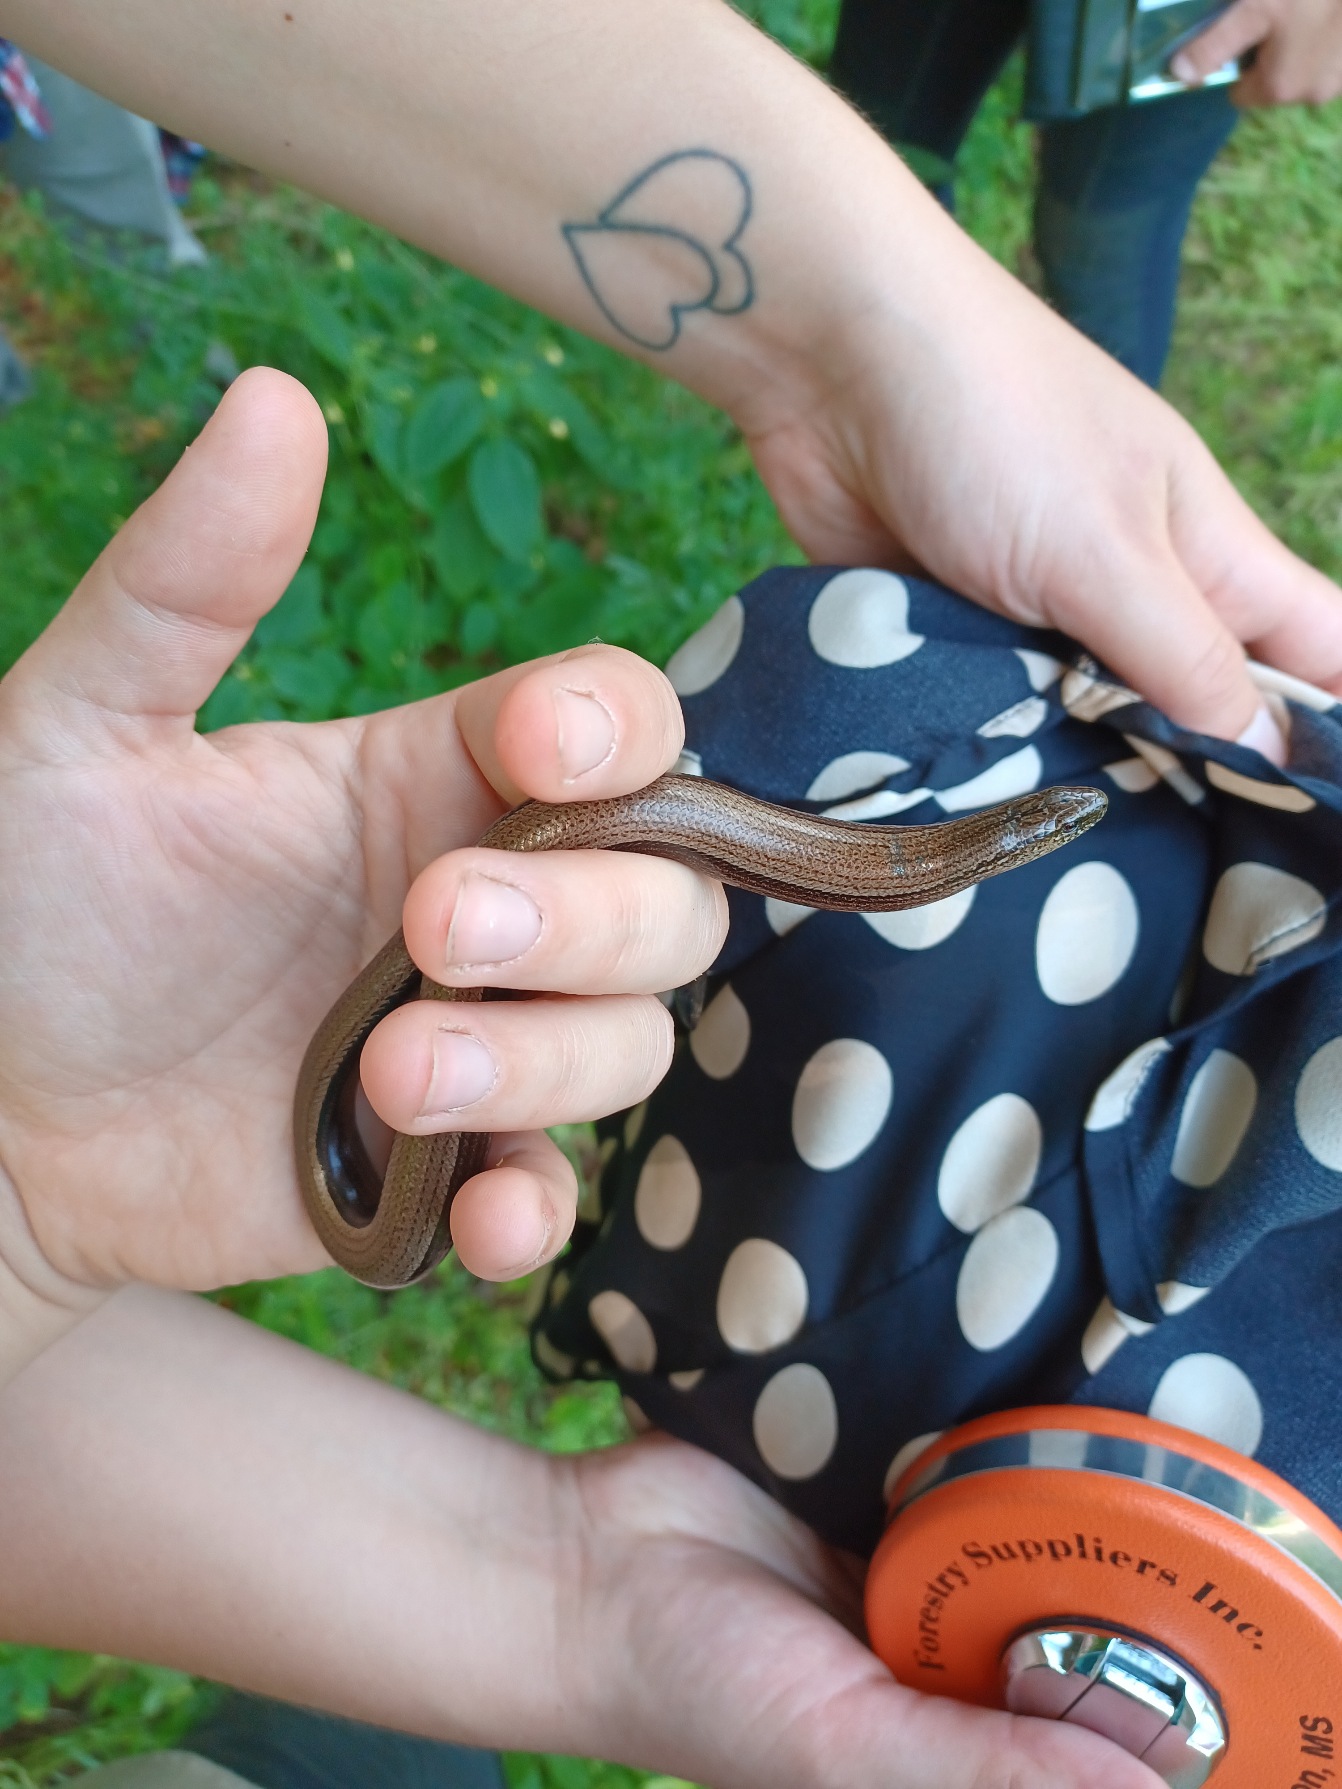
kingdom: Animalia
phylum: Chordata
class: Squamata
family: Anguidae
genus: Anguis
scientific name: Anguis fragilis
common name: Stålorm
